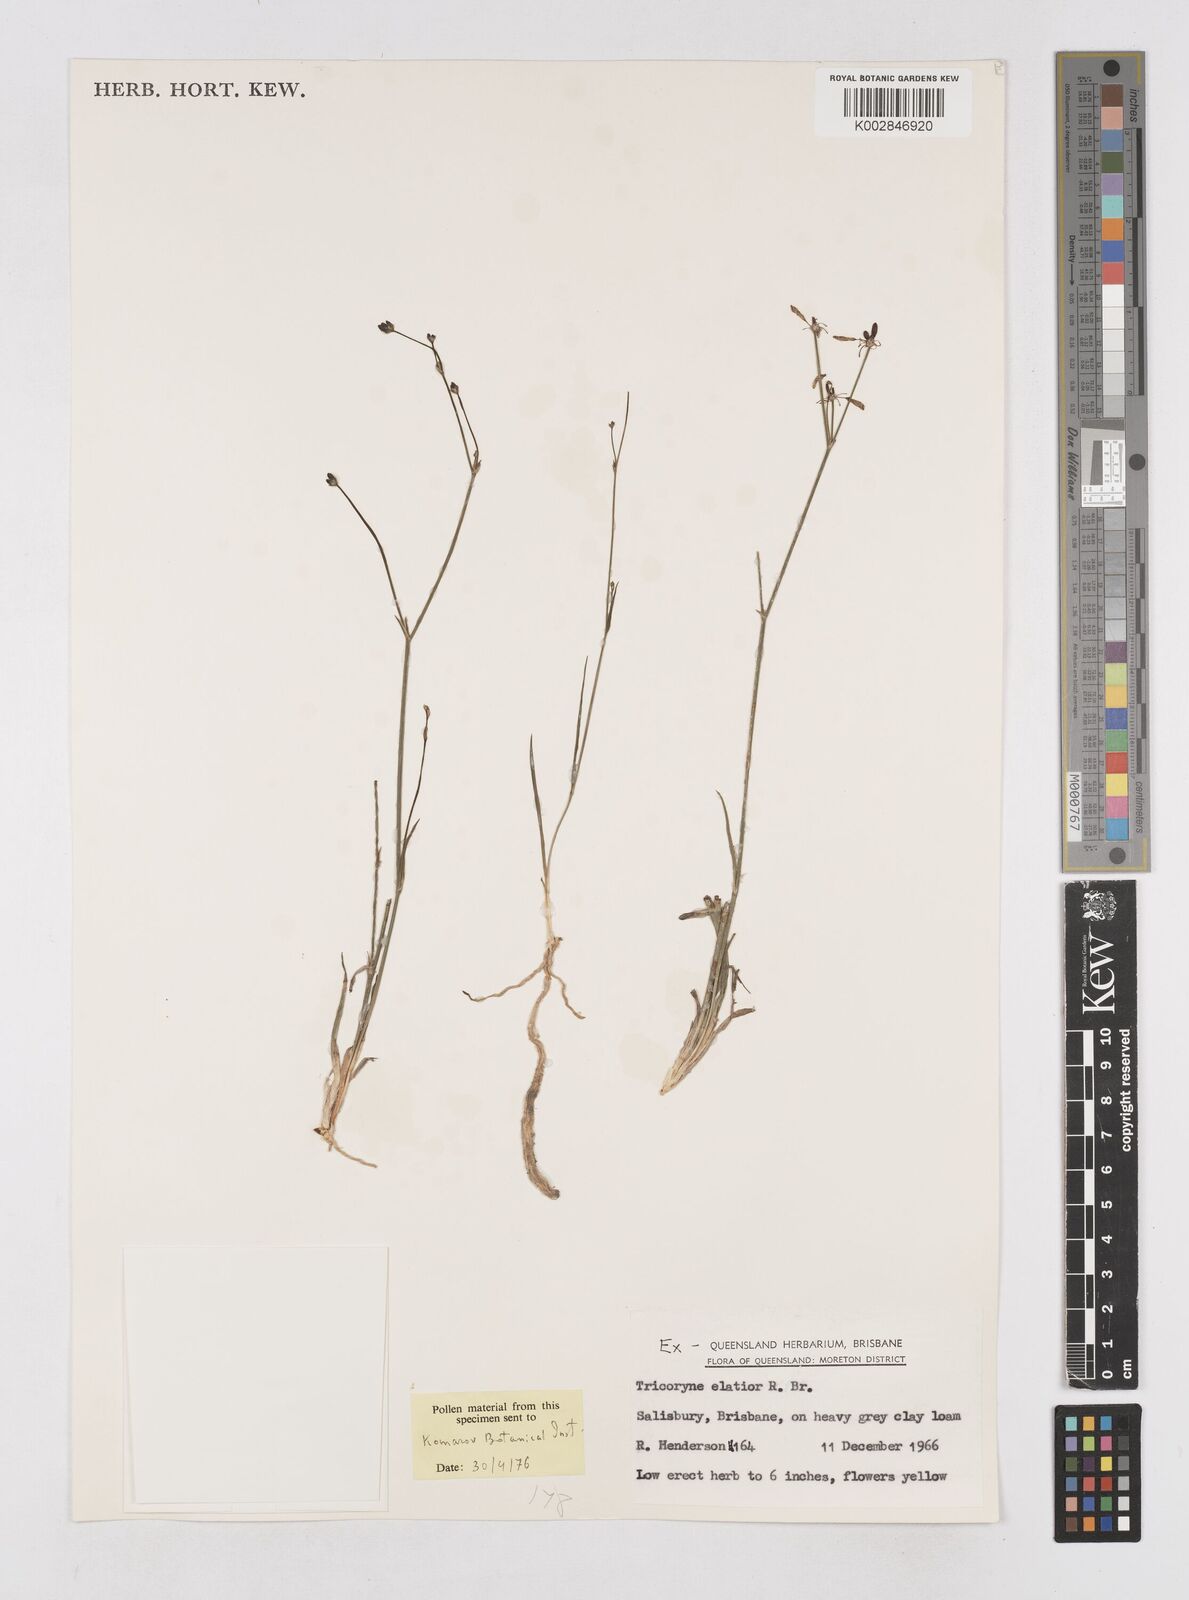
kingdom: Plantae
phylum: Tracheophyta
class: Liliopsida
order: Asparagales
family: Asphodelaceae
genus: Tricoryne
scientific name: Tricoryne elatior
